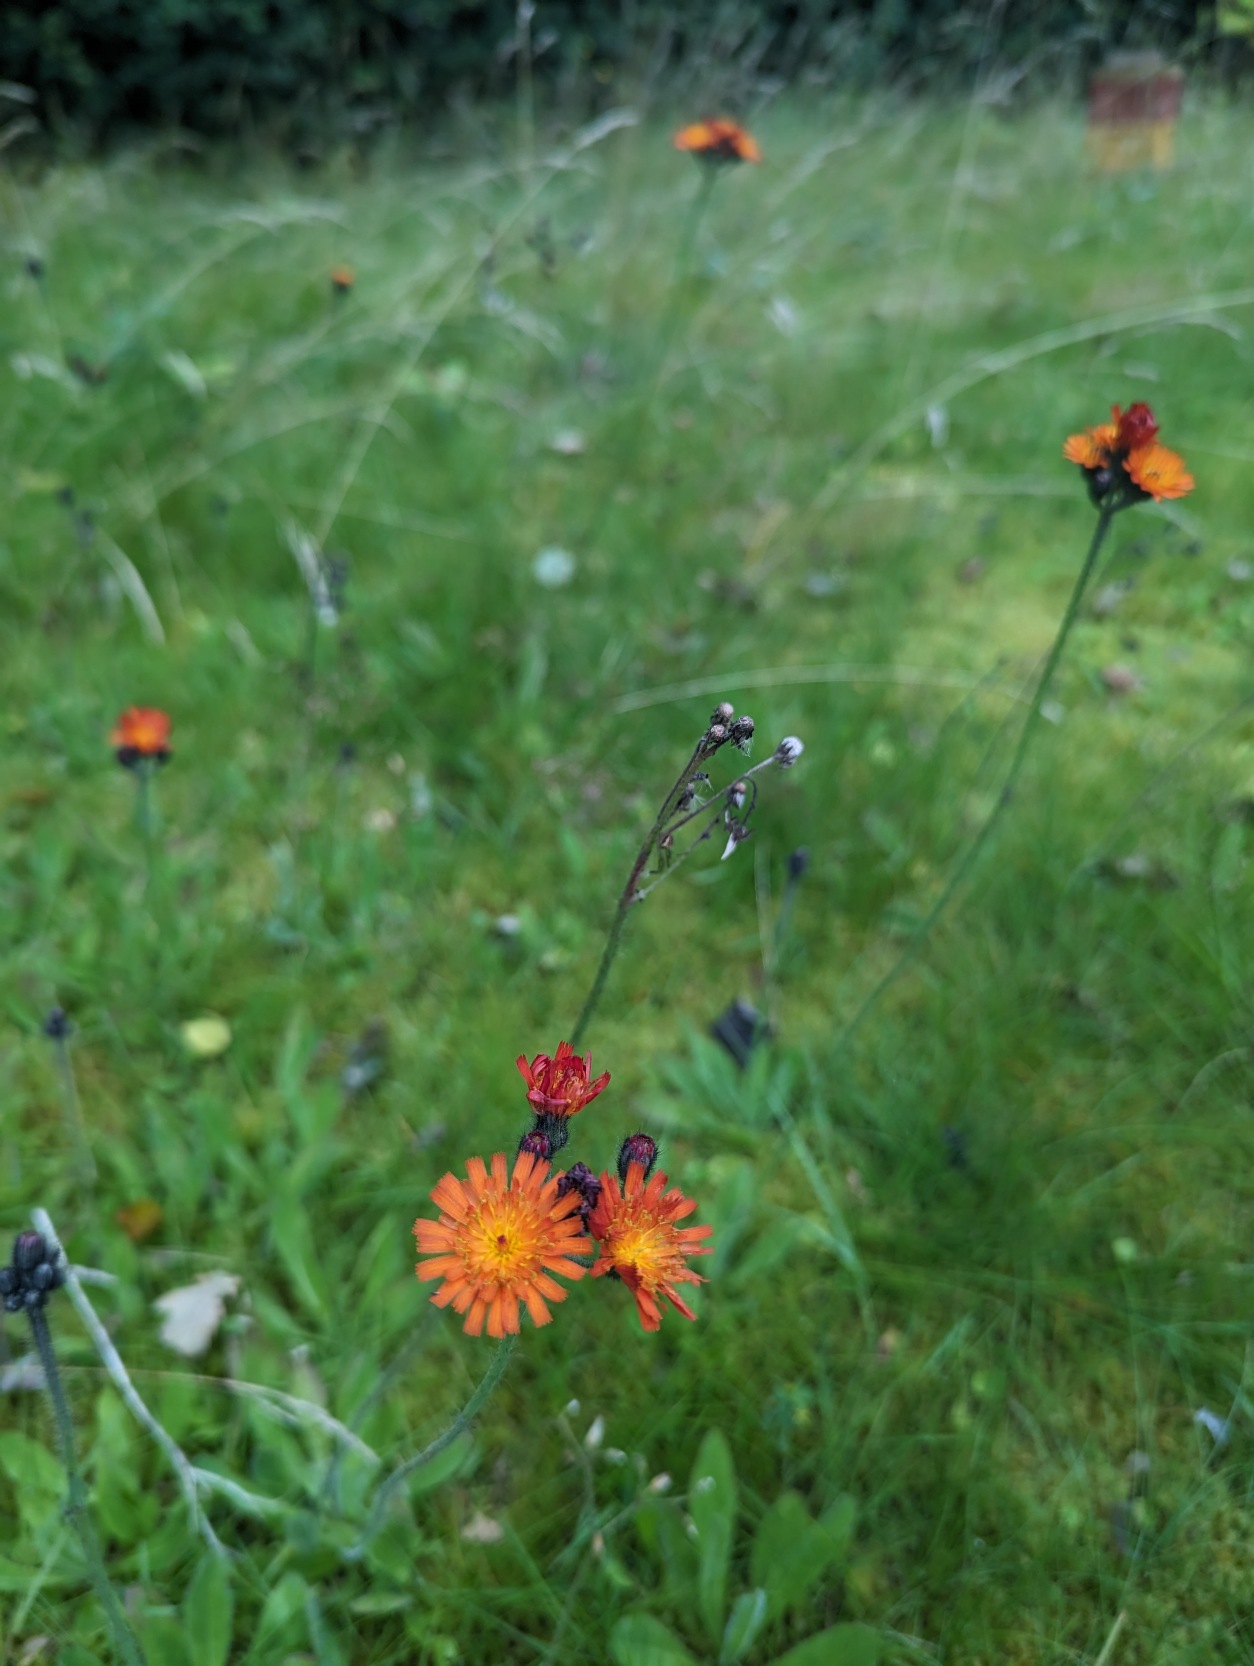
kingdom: Plantae
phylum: Tracheophyta
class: Magnoliopsida
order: Asterales
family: Asteraceae
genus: Pilosella
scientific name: Pilosella aurantiaca
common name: Pomerans-høgeurt
